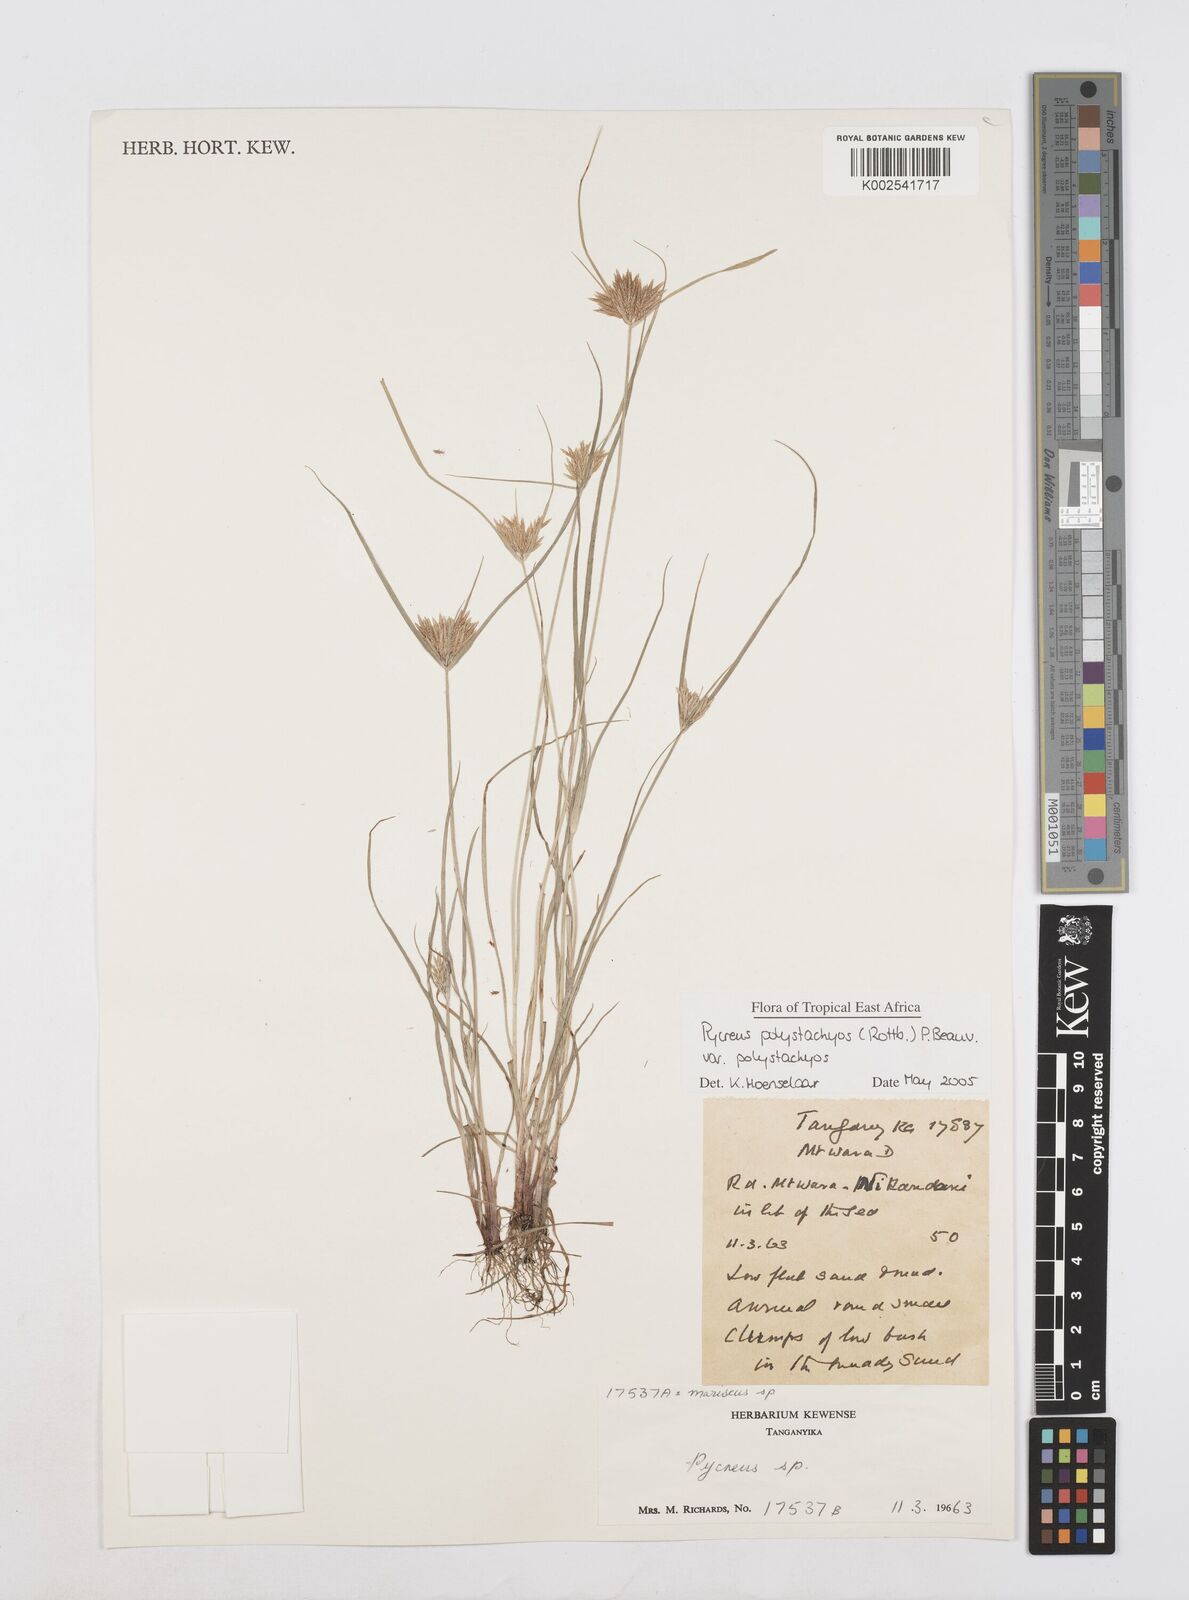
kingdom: Plantae
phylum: Tracheophyta
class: Liliopsida
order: Poales
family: Cyperaceae
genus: Cyperus
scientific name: Cyperus polystachyos
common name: Bunchy flat sedge
